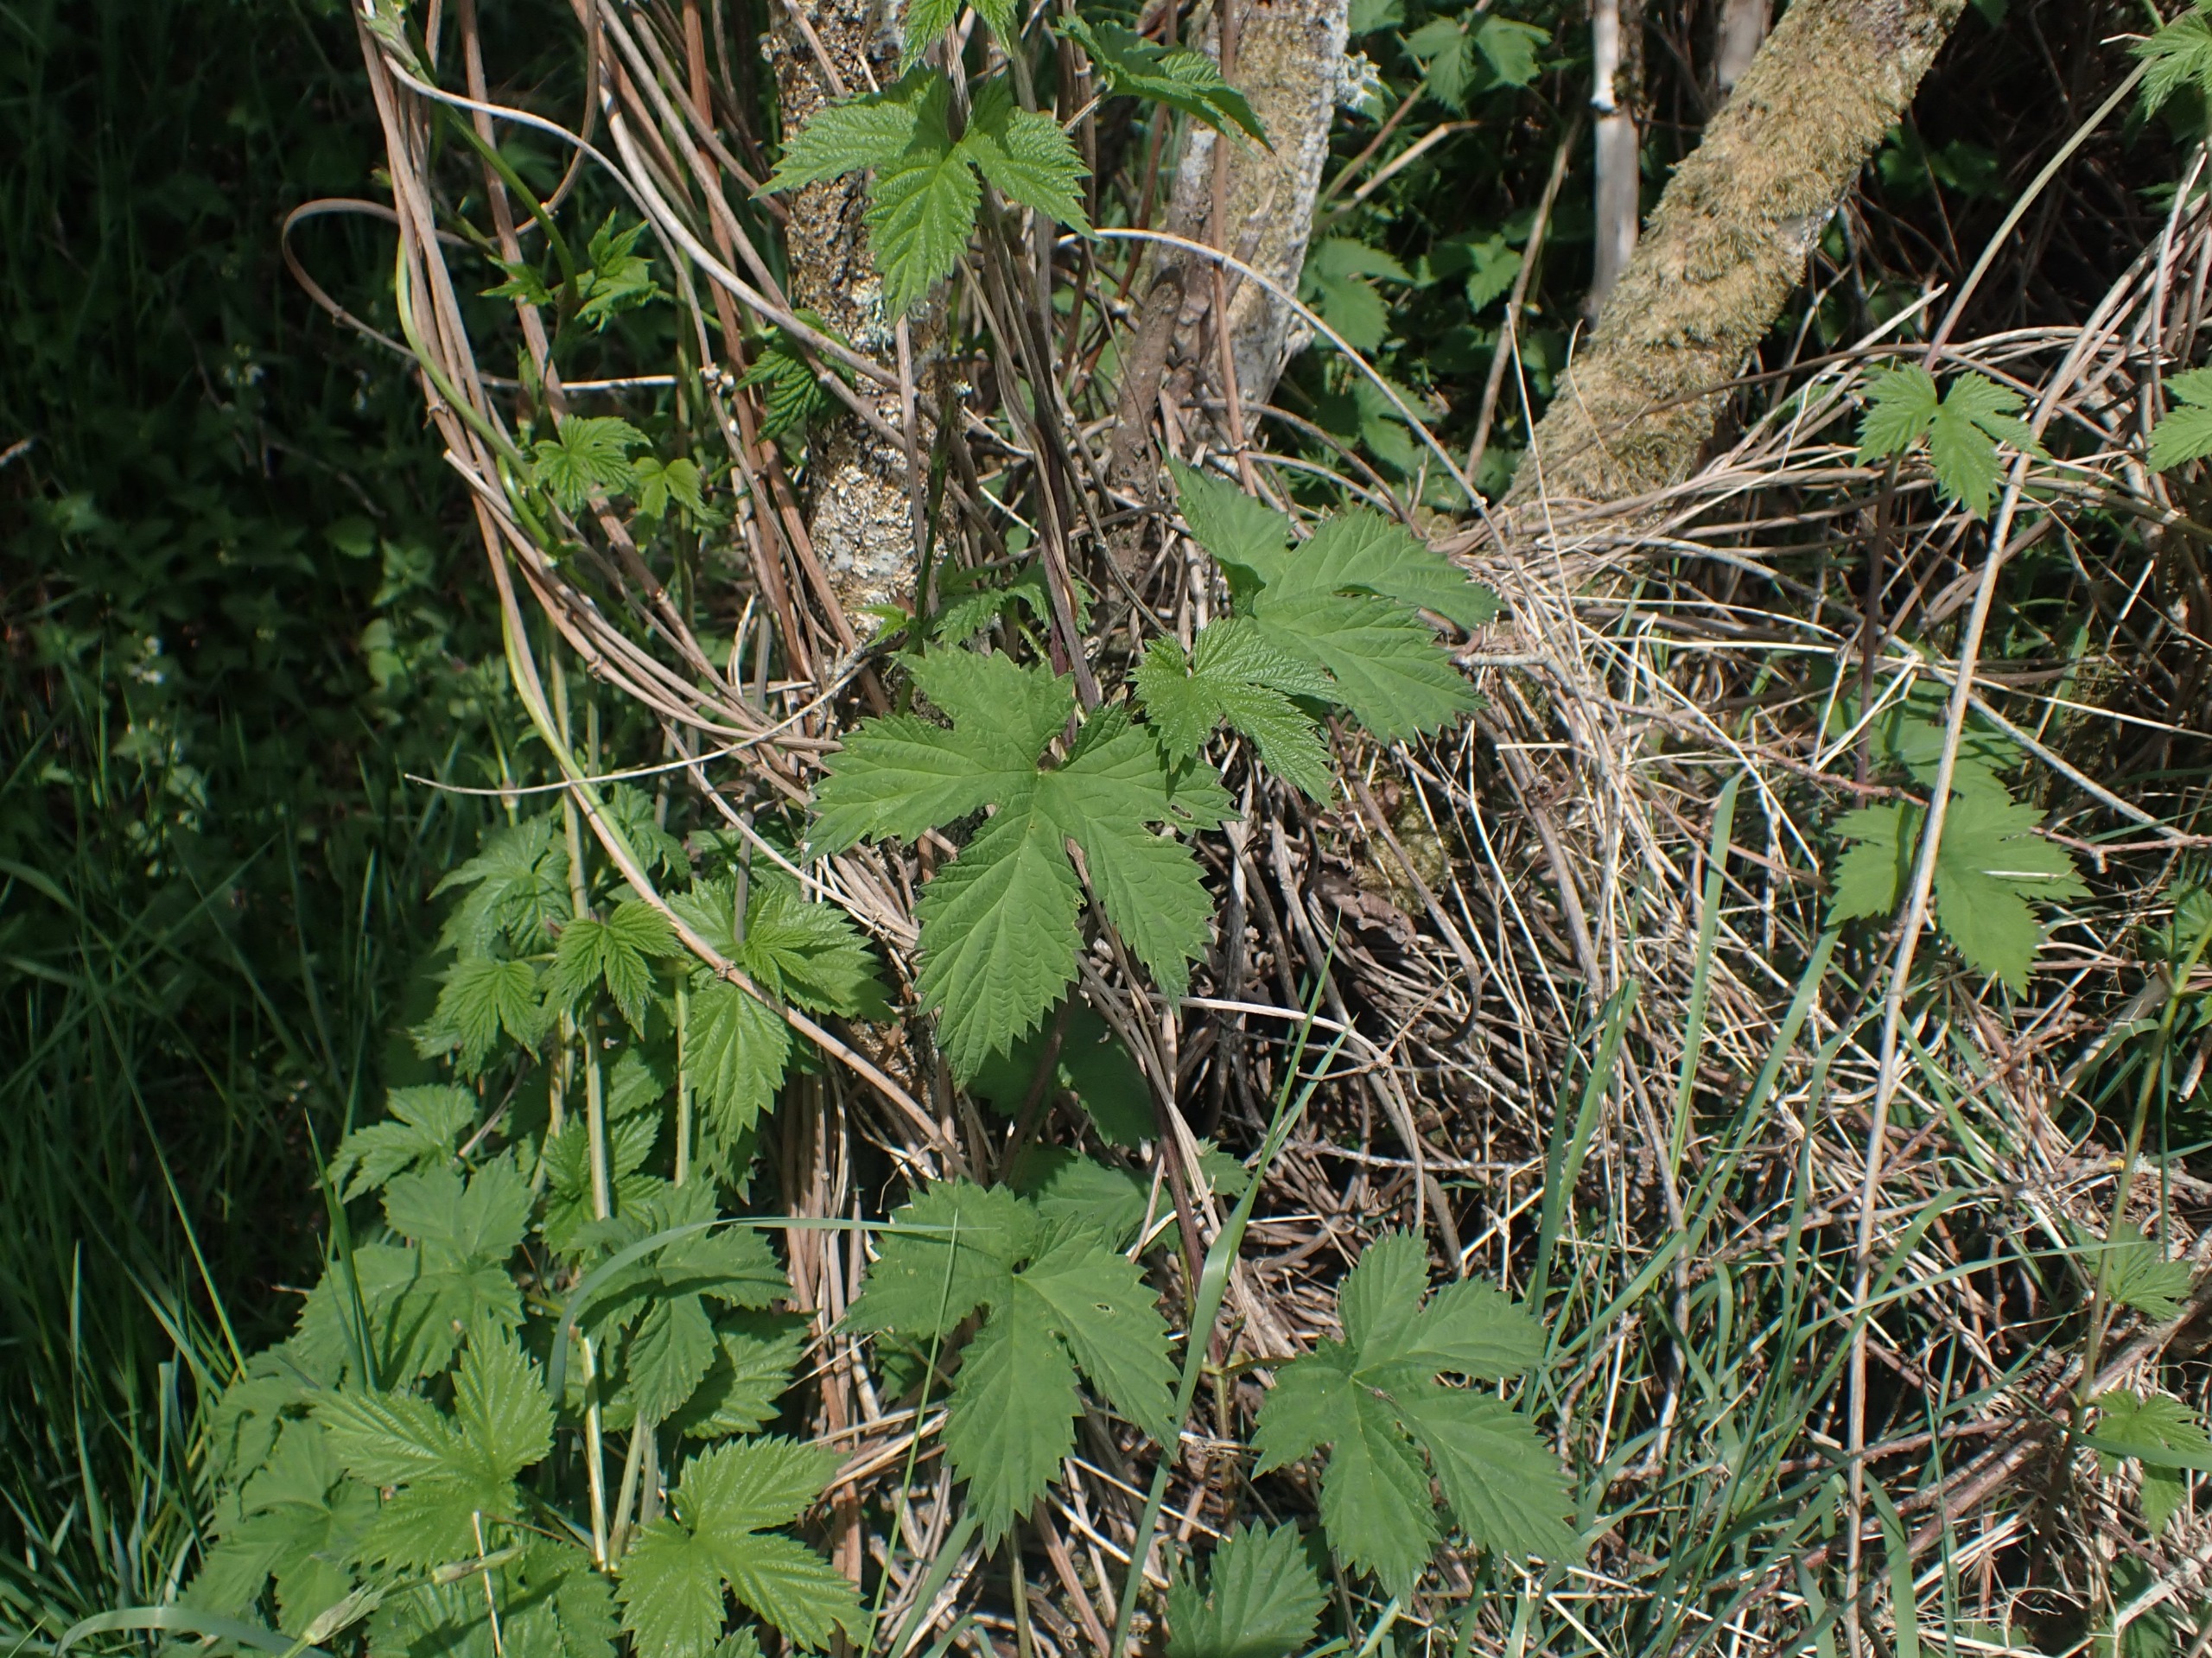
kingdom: Plantae
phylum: Tracheophyta
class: Magnoliopsida
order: Rosales
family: Cannabaceae
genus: Humulus
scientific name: Humulus lupulus
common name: Humle
